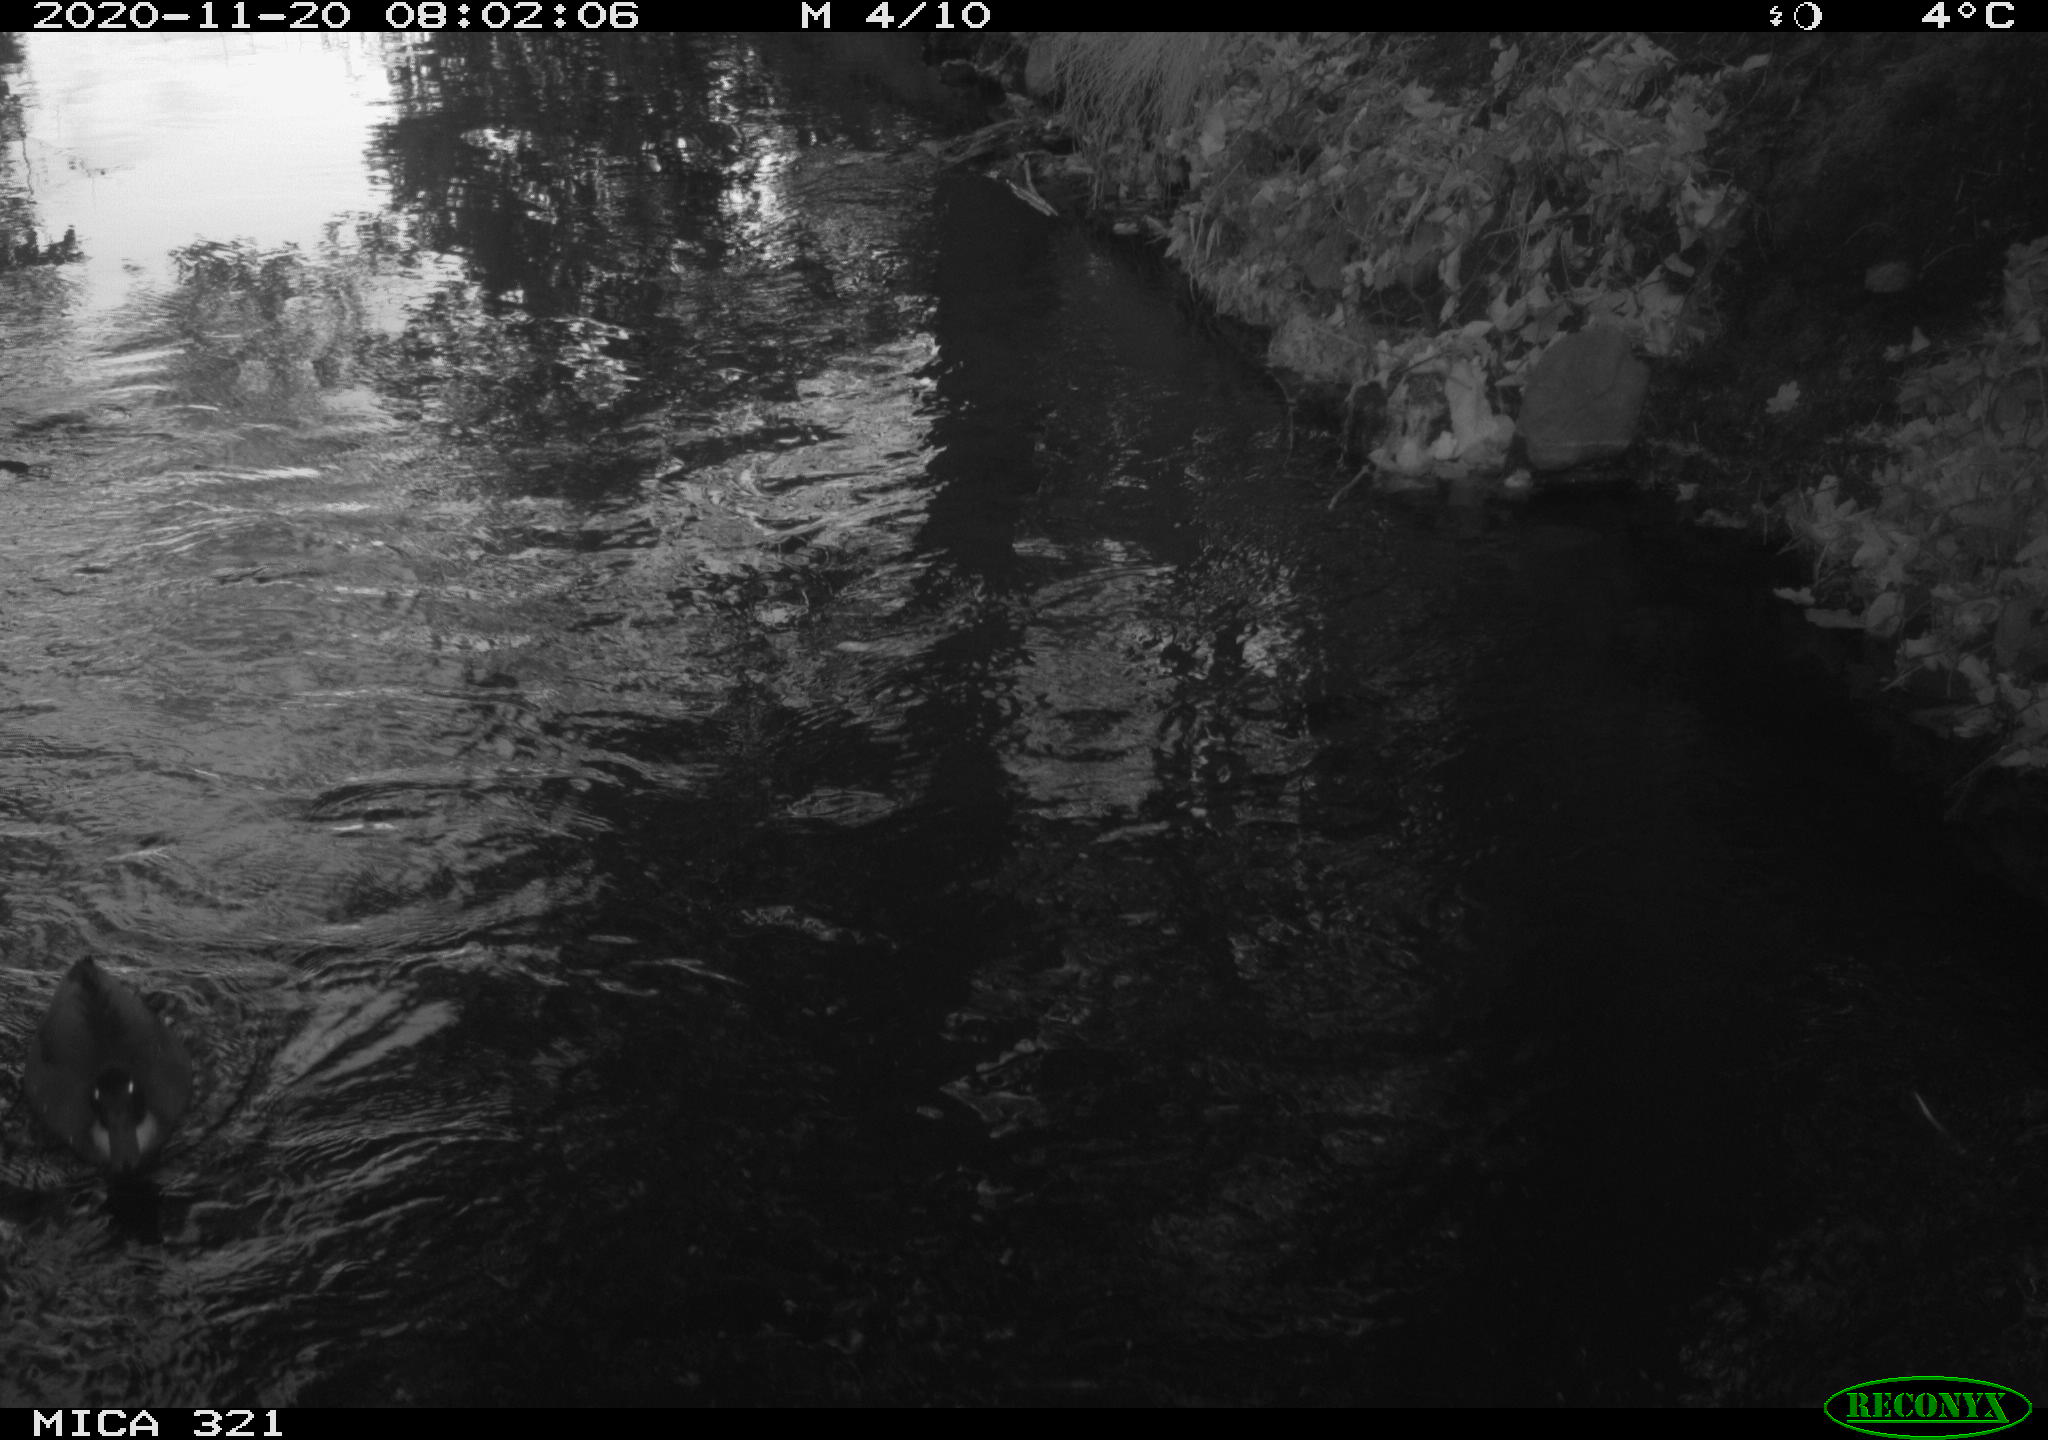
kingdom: Animalia
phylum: Chordata
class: Aves
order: Gruiformes
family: Rallidae
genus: Gallinula
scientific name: Gallinula chloropus
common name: Common moorhen
